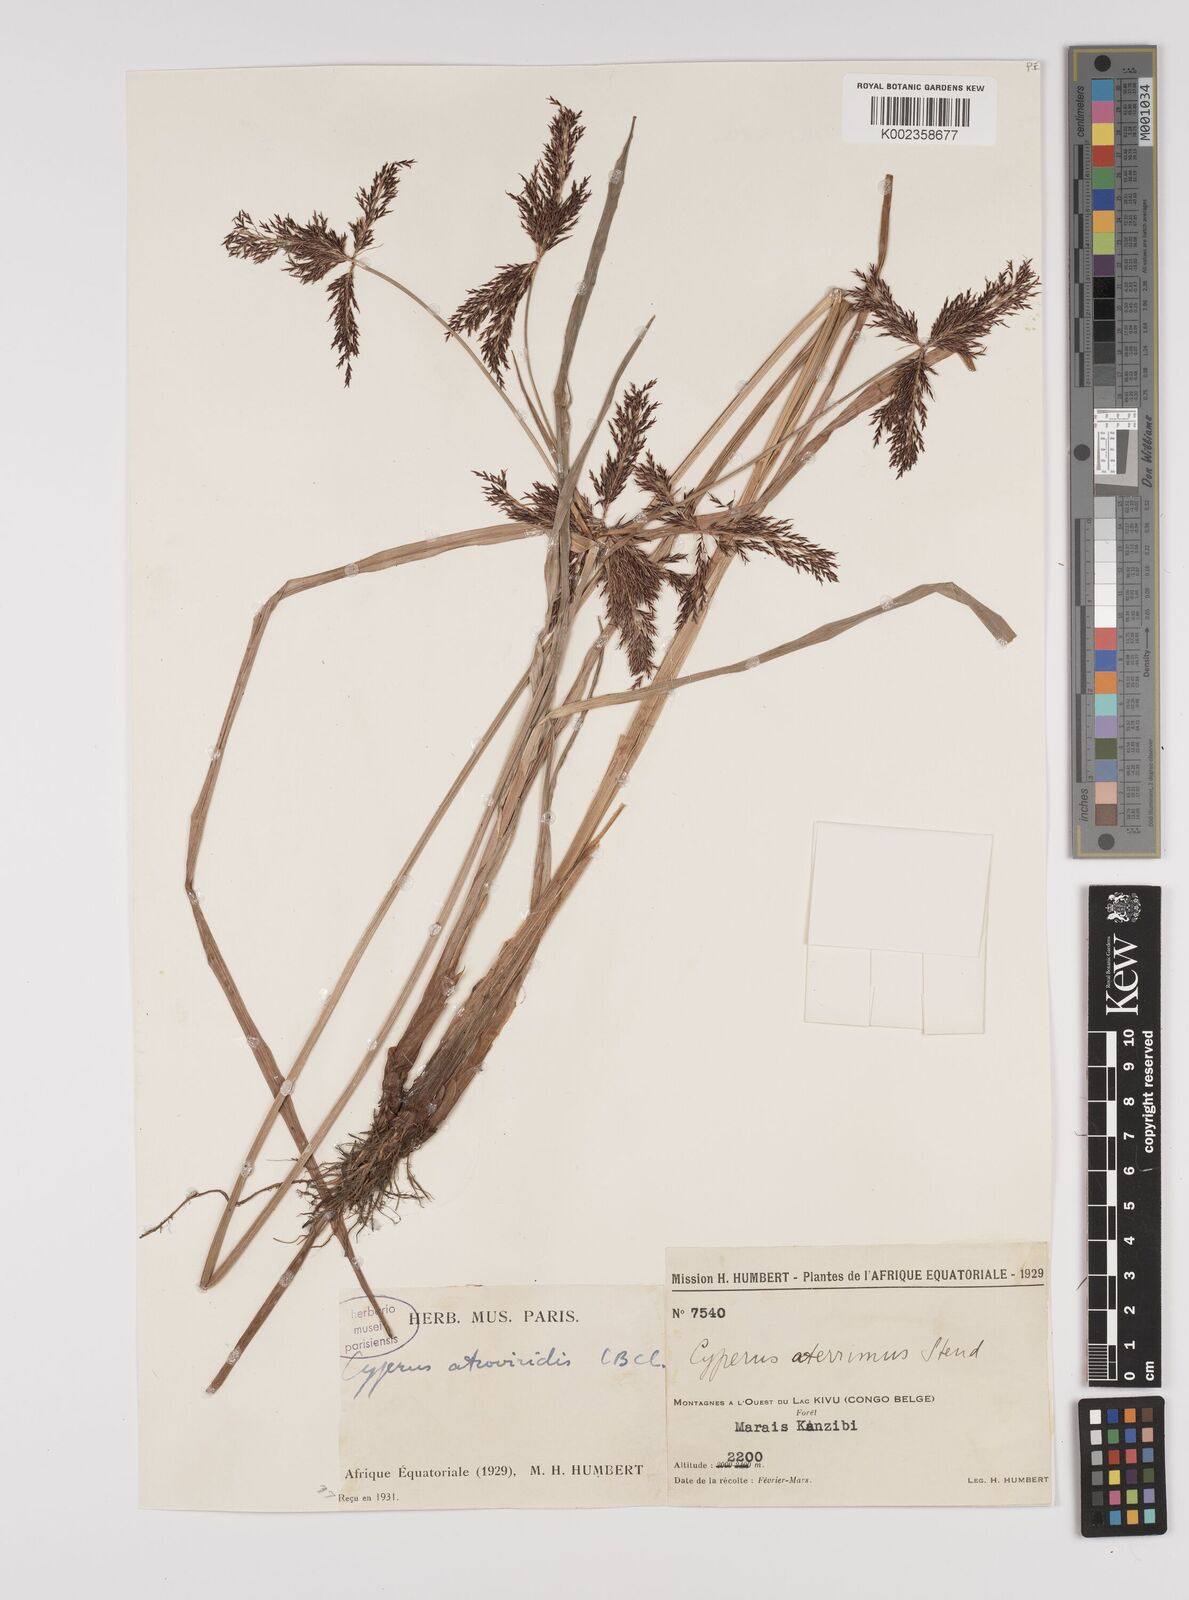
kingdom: Plantae
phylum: Tracheophyta
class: Liliopsida
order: Poales
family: Cyperaceae
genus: Cyperus
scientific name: Cyperus aterrimus
